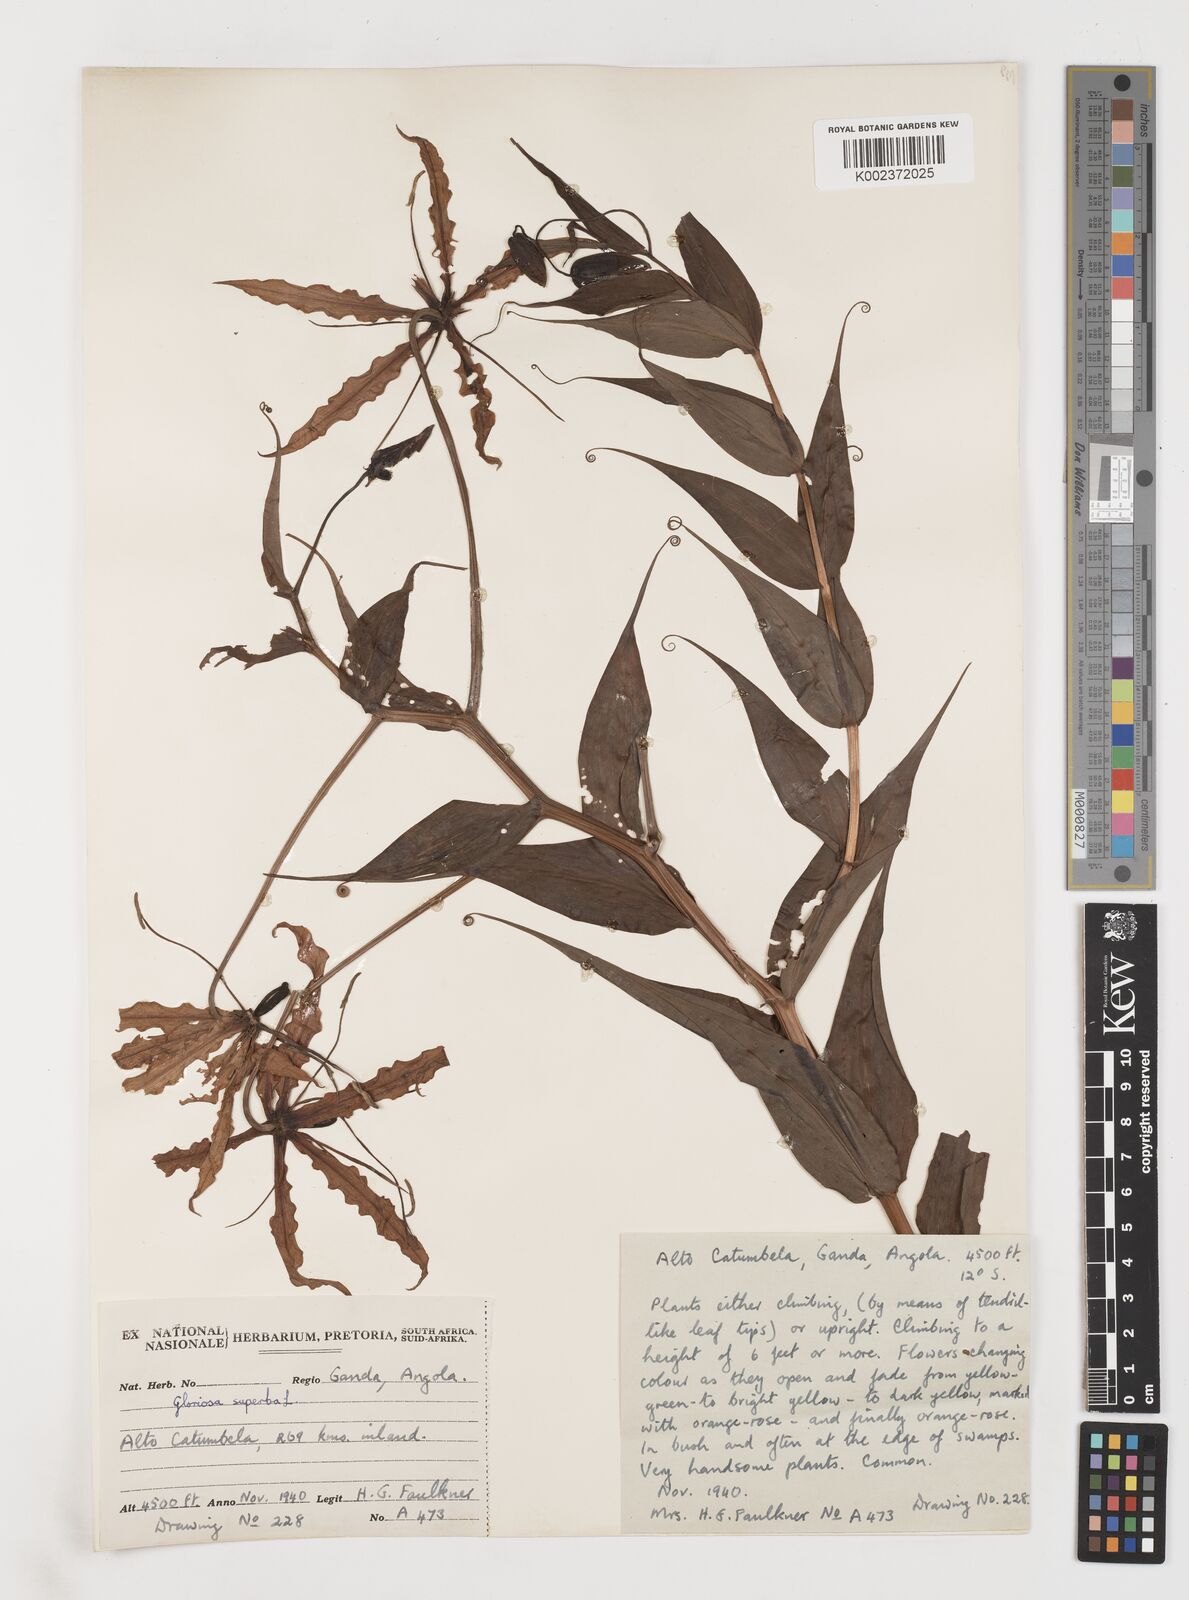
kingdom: Plantae
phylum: Tracheophyta
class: Liliopsida
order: Liliales
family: Colchicaceae
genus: Gloriosa
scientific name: Gloriosa superba
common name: Flame lily
